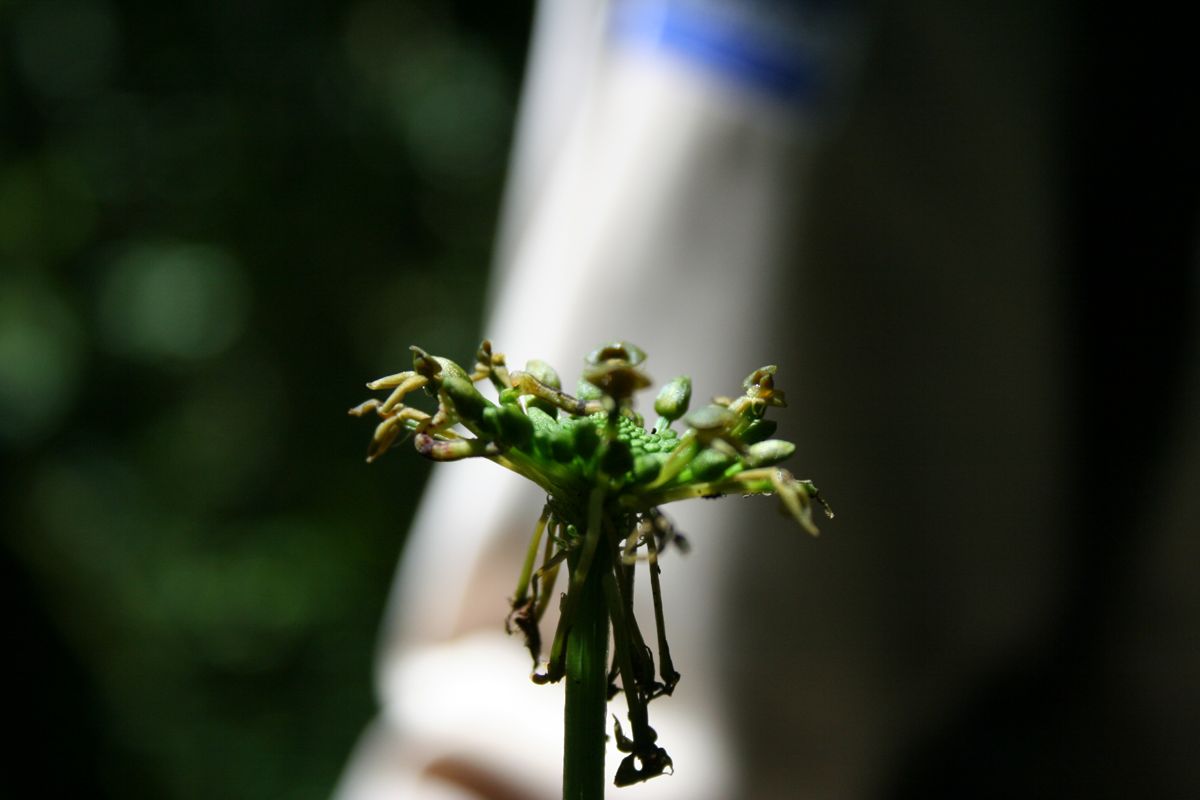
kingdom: Plantae
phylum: Tracheophyta
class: Liliopsida
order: Asparagales
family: Orchidaceae
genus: Malaxis
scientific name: Malaxis parthoni
